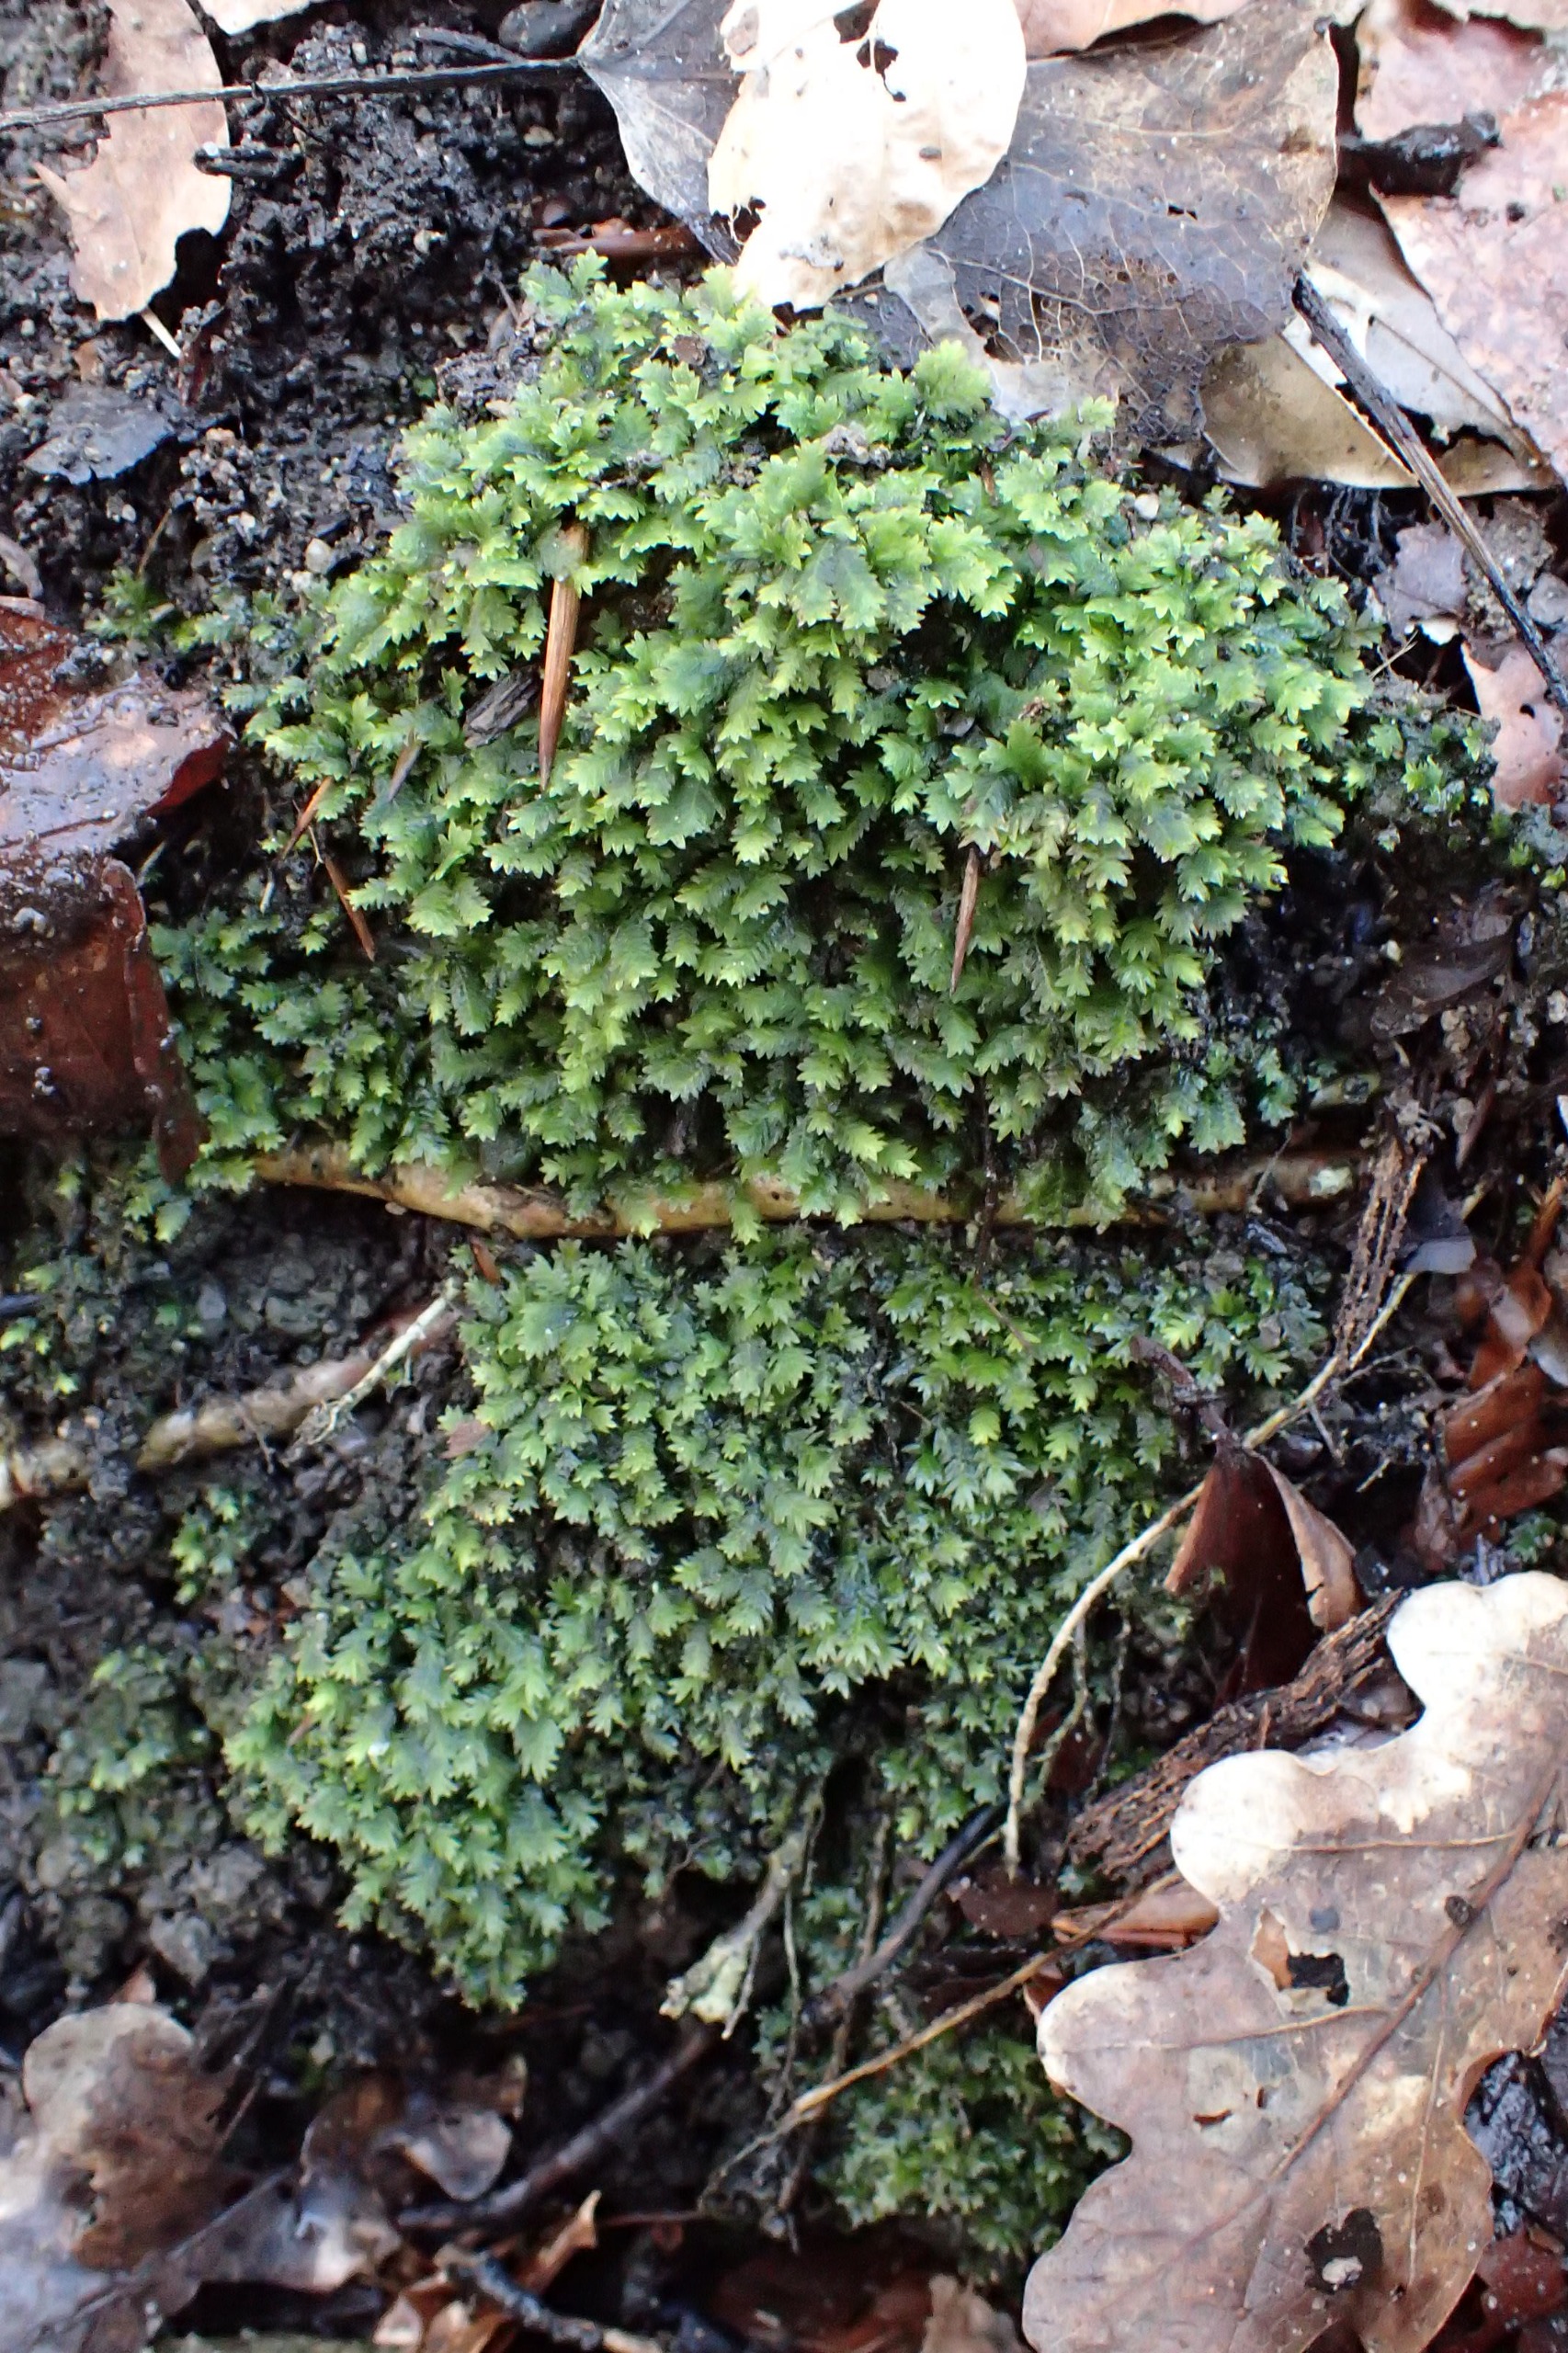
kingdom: Plantae
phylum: Bryophyta
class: Bryopsida
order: Dicranales
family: Fissidentaceae
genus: Fissidens
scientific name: Fissidens taxifolius
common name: Taksbladet rademos
